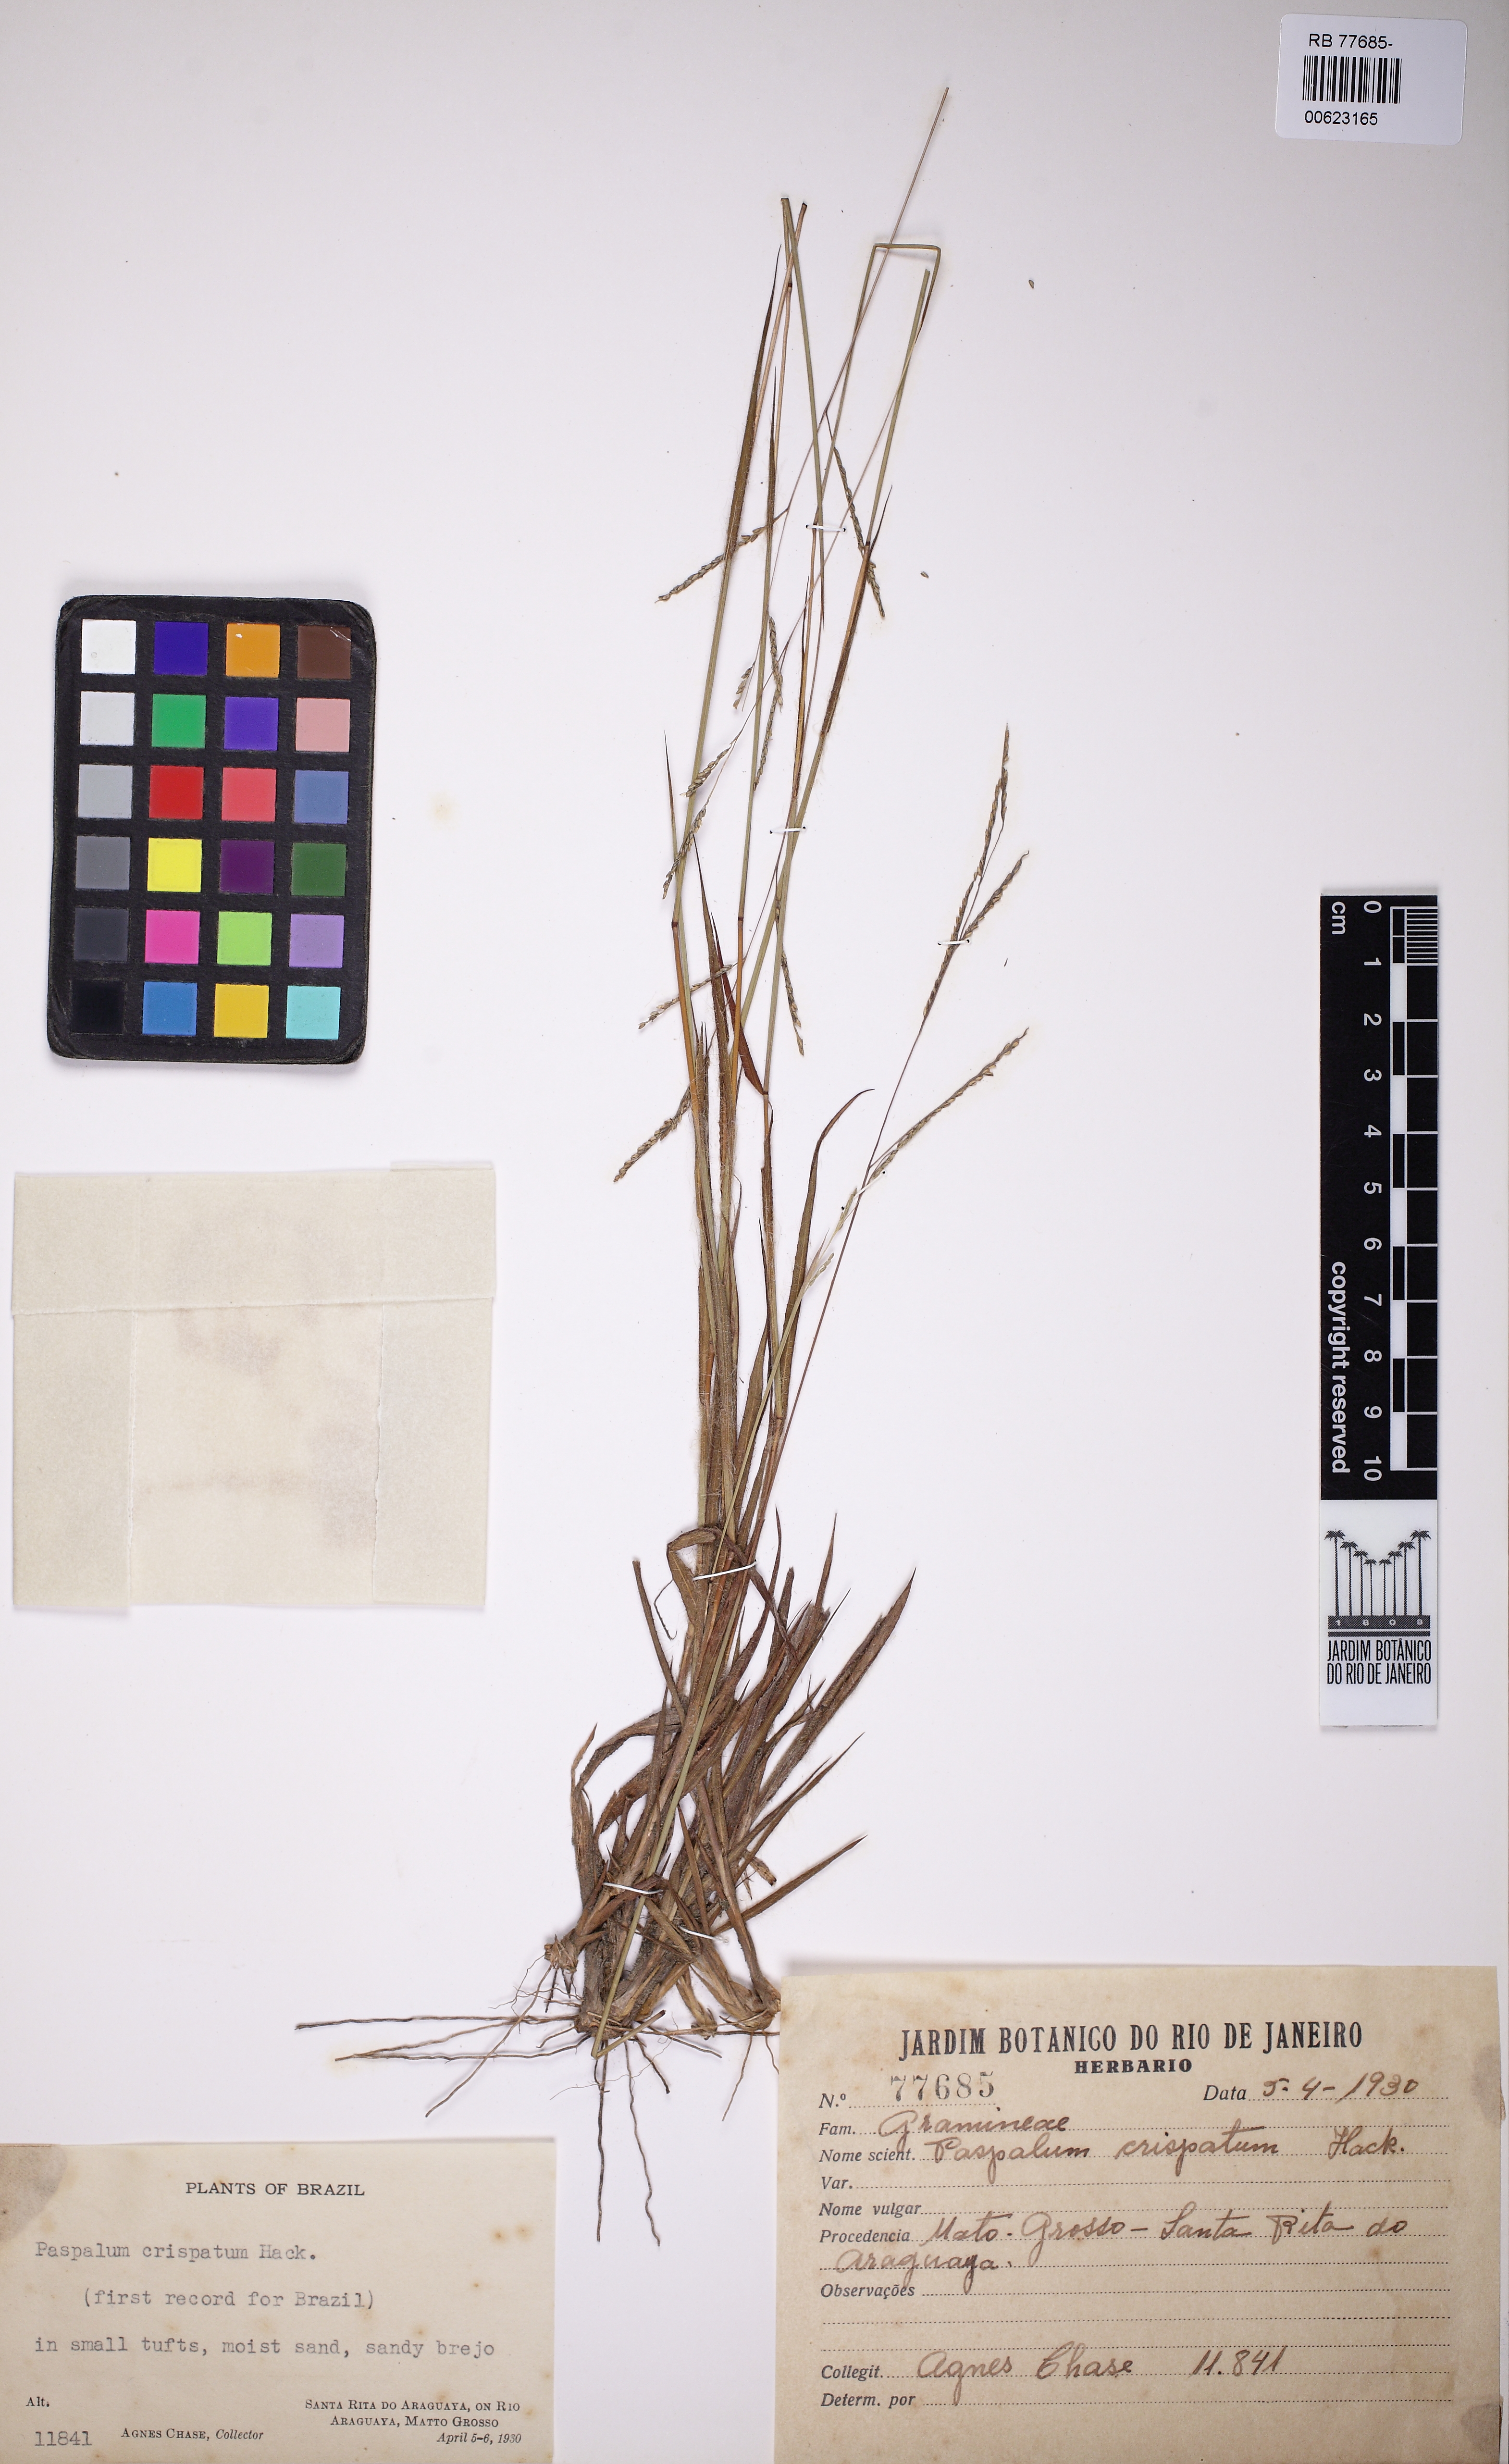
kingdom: Plantae
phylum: Tracheophyta
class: Liliopsida
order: Poales
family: Poaceae
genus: Paspalum
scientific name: Paspalum crispatum
